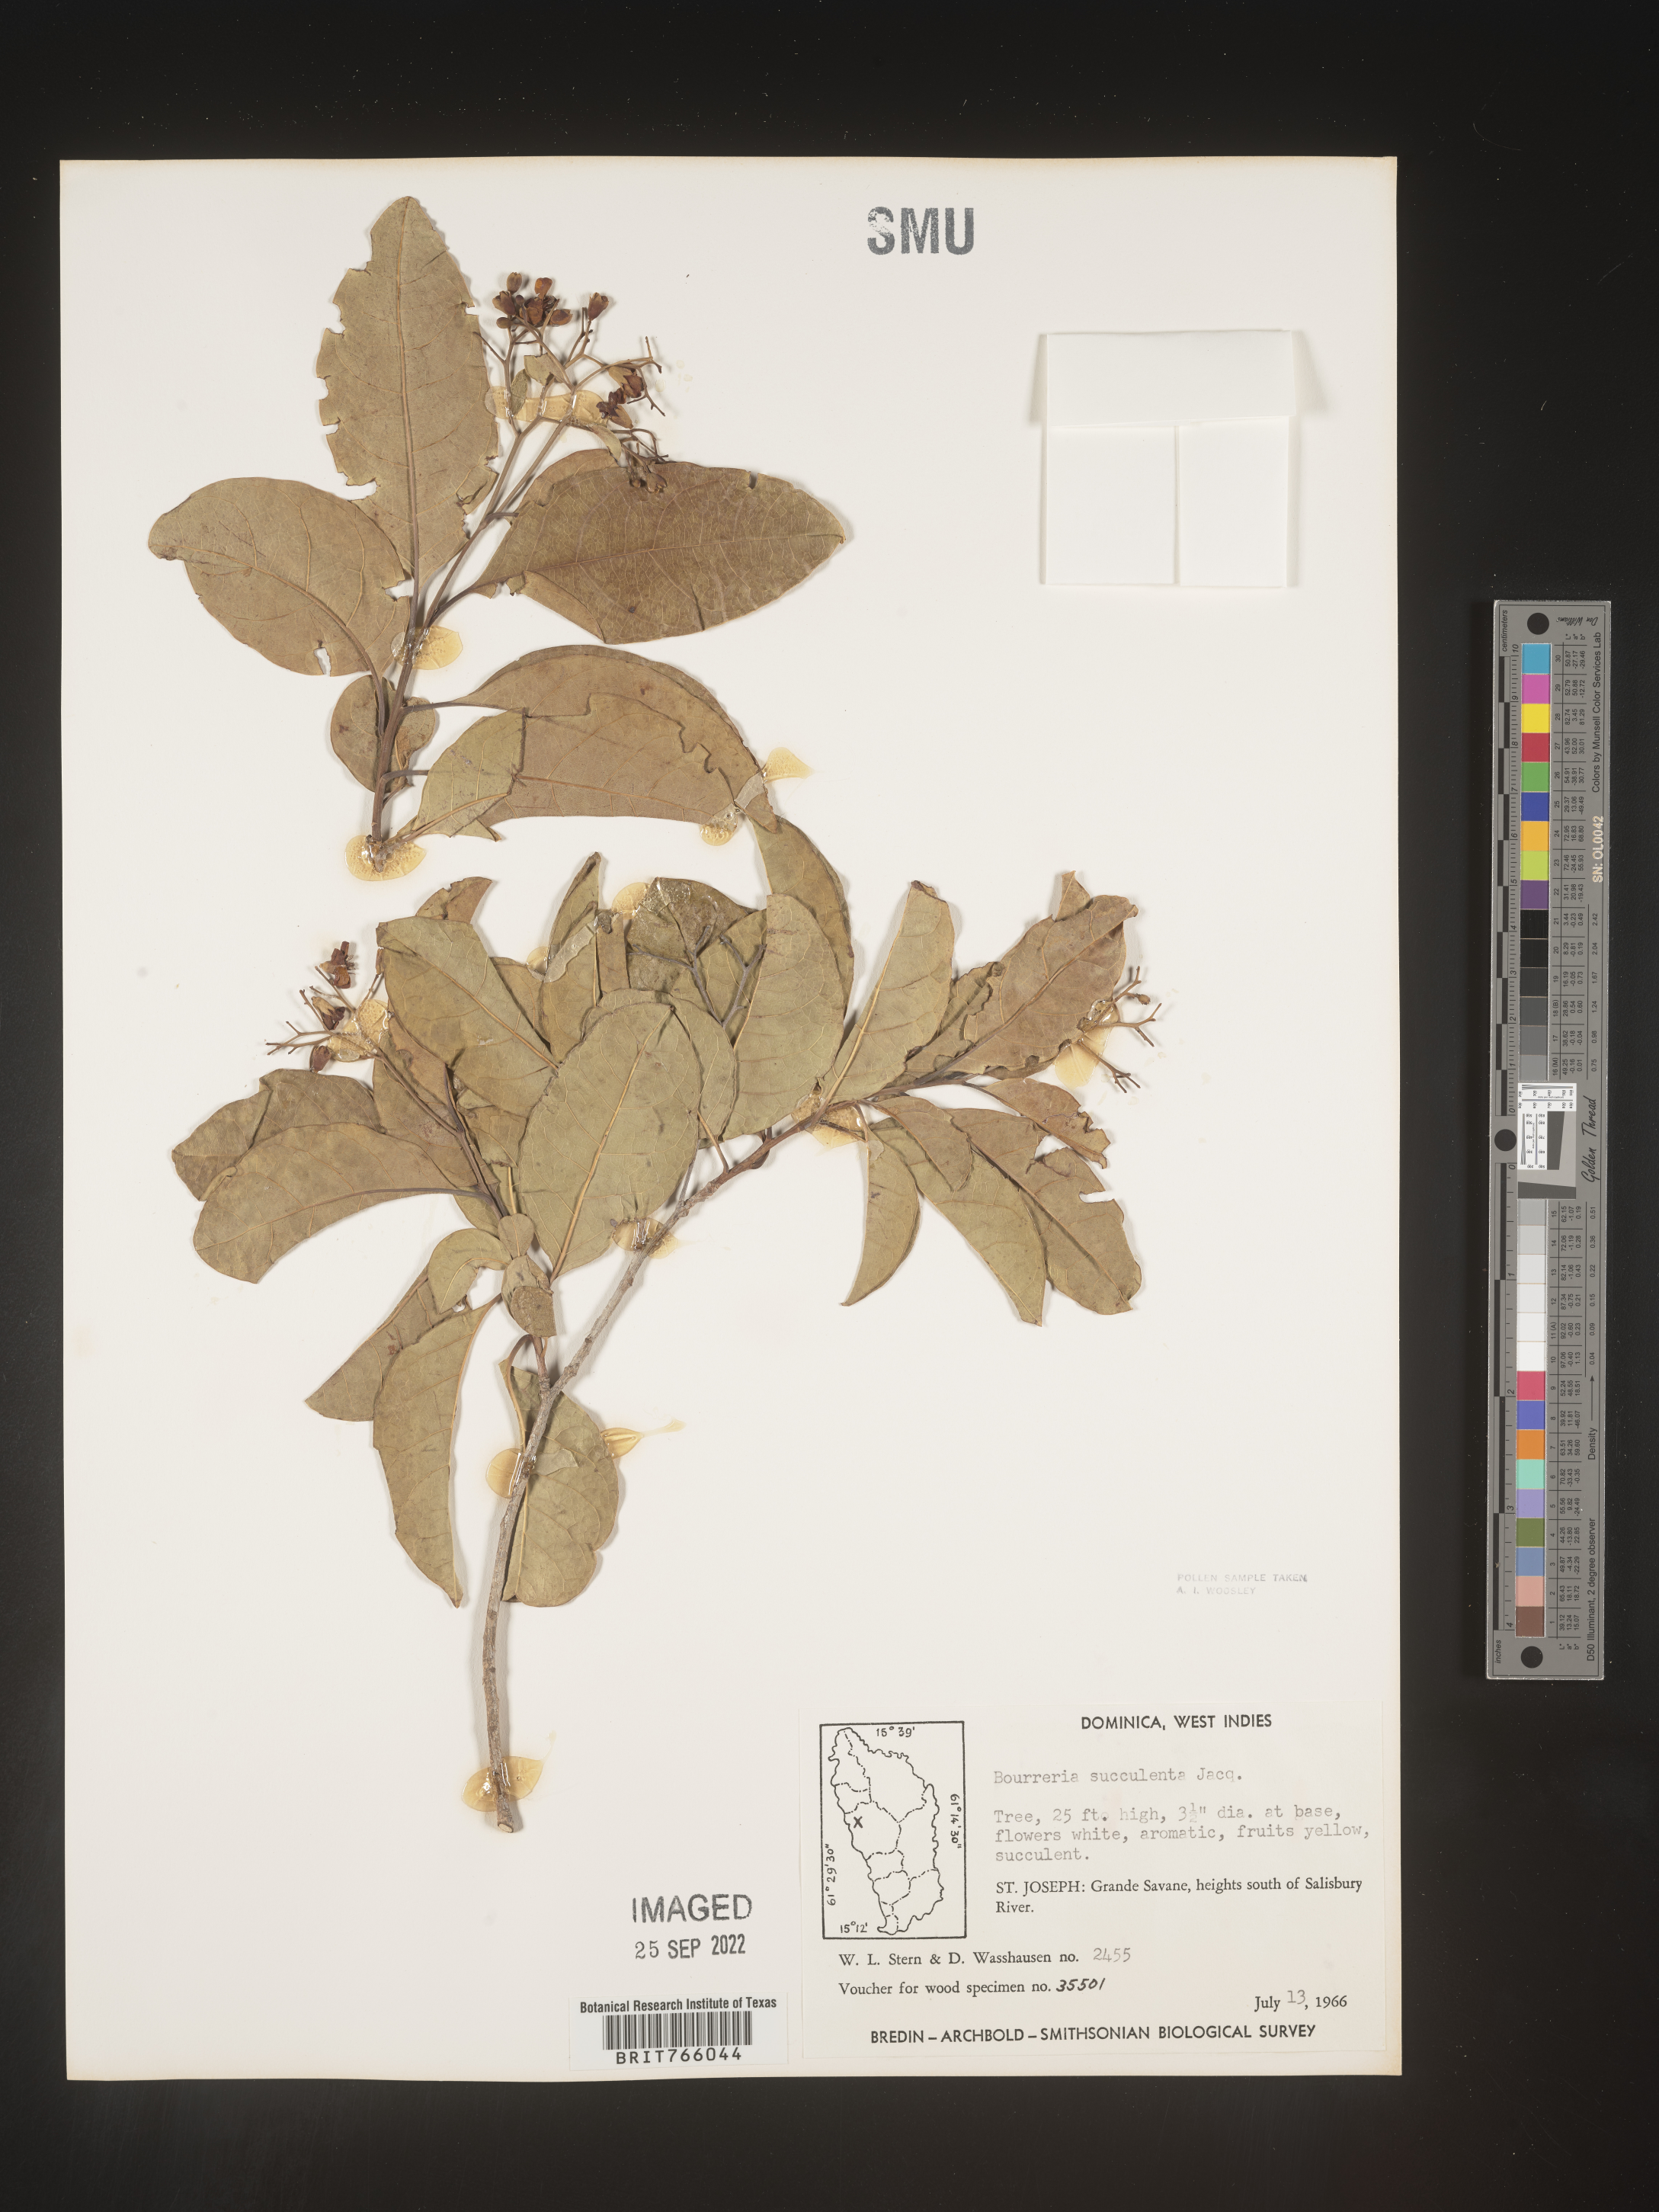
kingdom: Plantae
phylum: Tracheophyta
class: Magnoliopsida
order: Boraginales
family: Ehretiaceae
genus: Bourreria
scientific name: Bourreria
